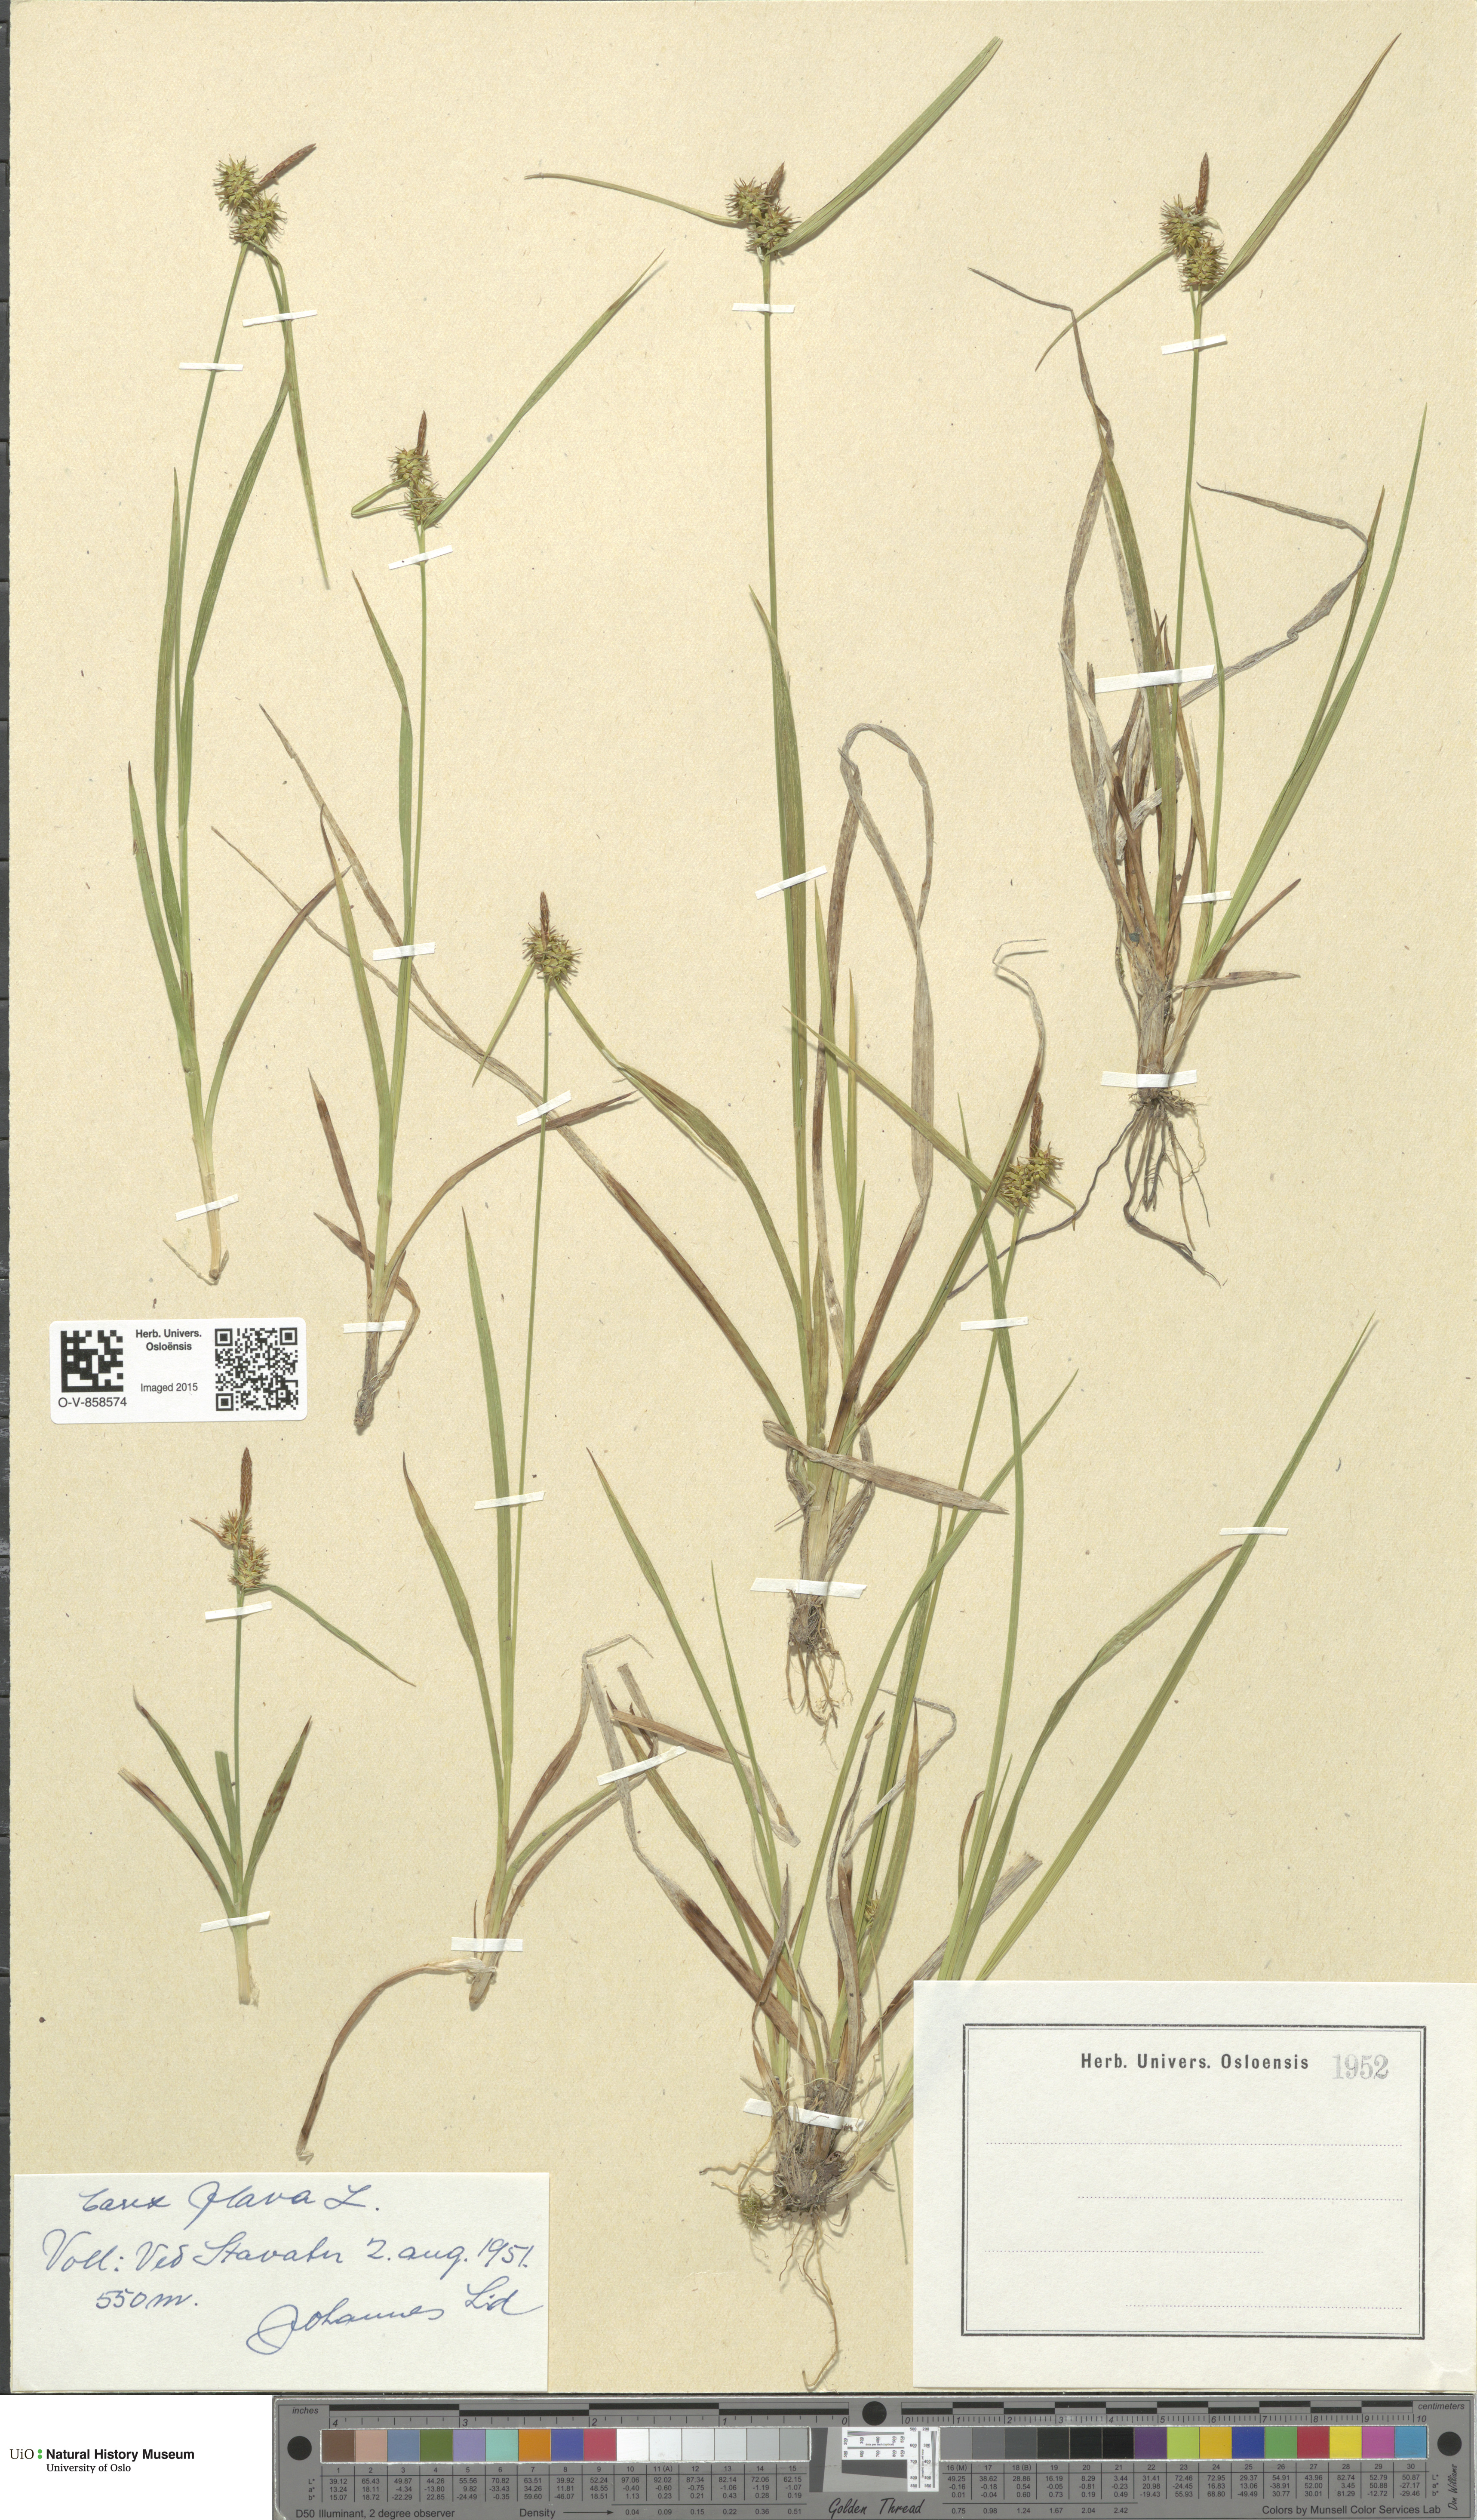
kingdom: Plantae
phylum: Tracheophyta
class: Liliopsida
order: Poales
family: Cyperaceae
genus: Carex
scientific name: Carex flava
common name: Large yellow-sedge
